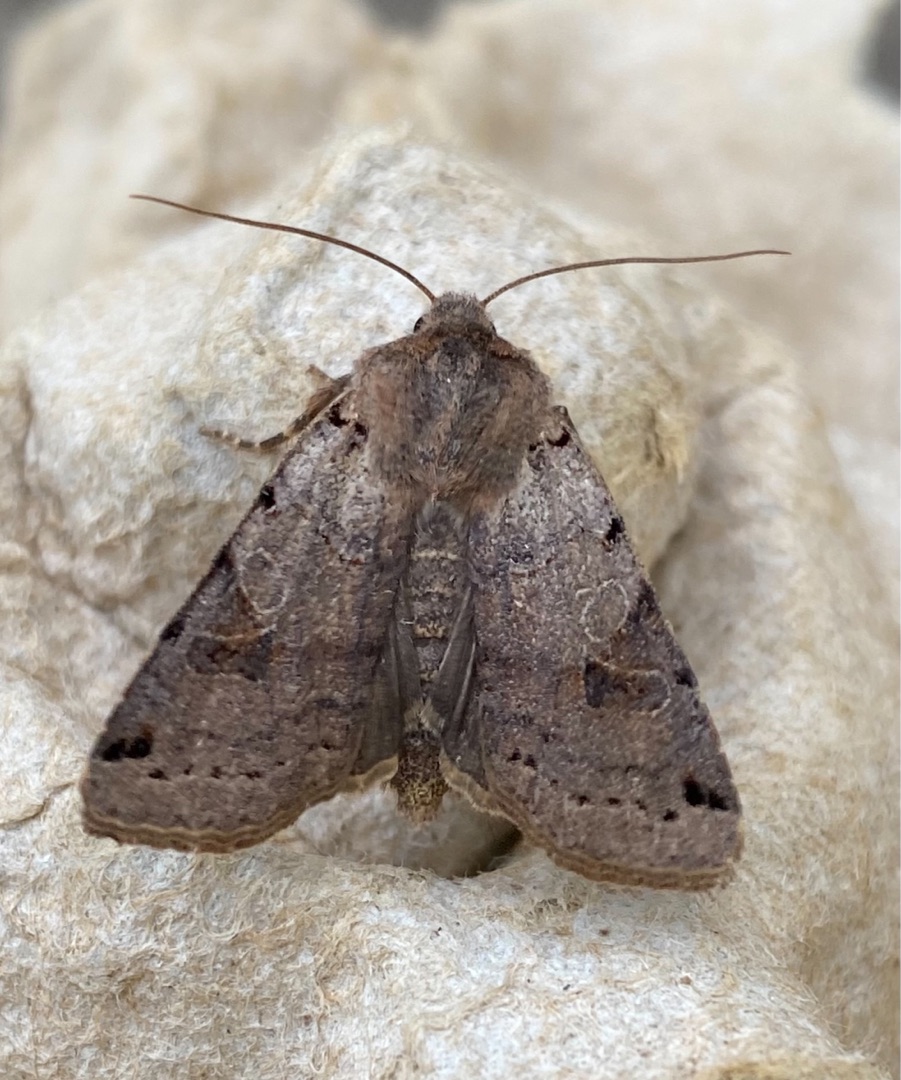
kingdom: Animalia
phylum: Arthropoda
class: Insecta
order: Lepidoptera
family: Noctuidae
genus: Agrochola
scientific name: Agrochola litura
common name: Kantplettet jordfarveugle
